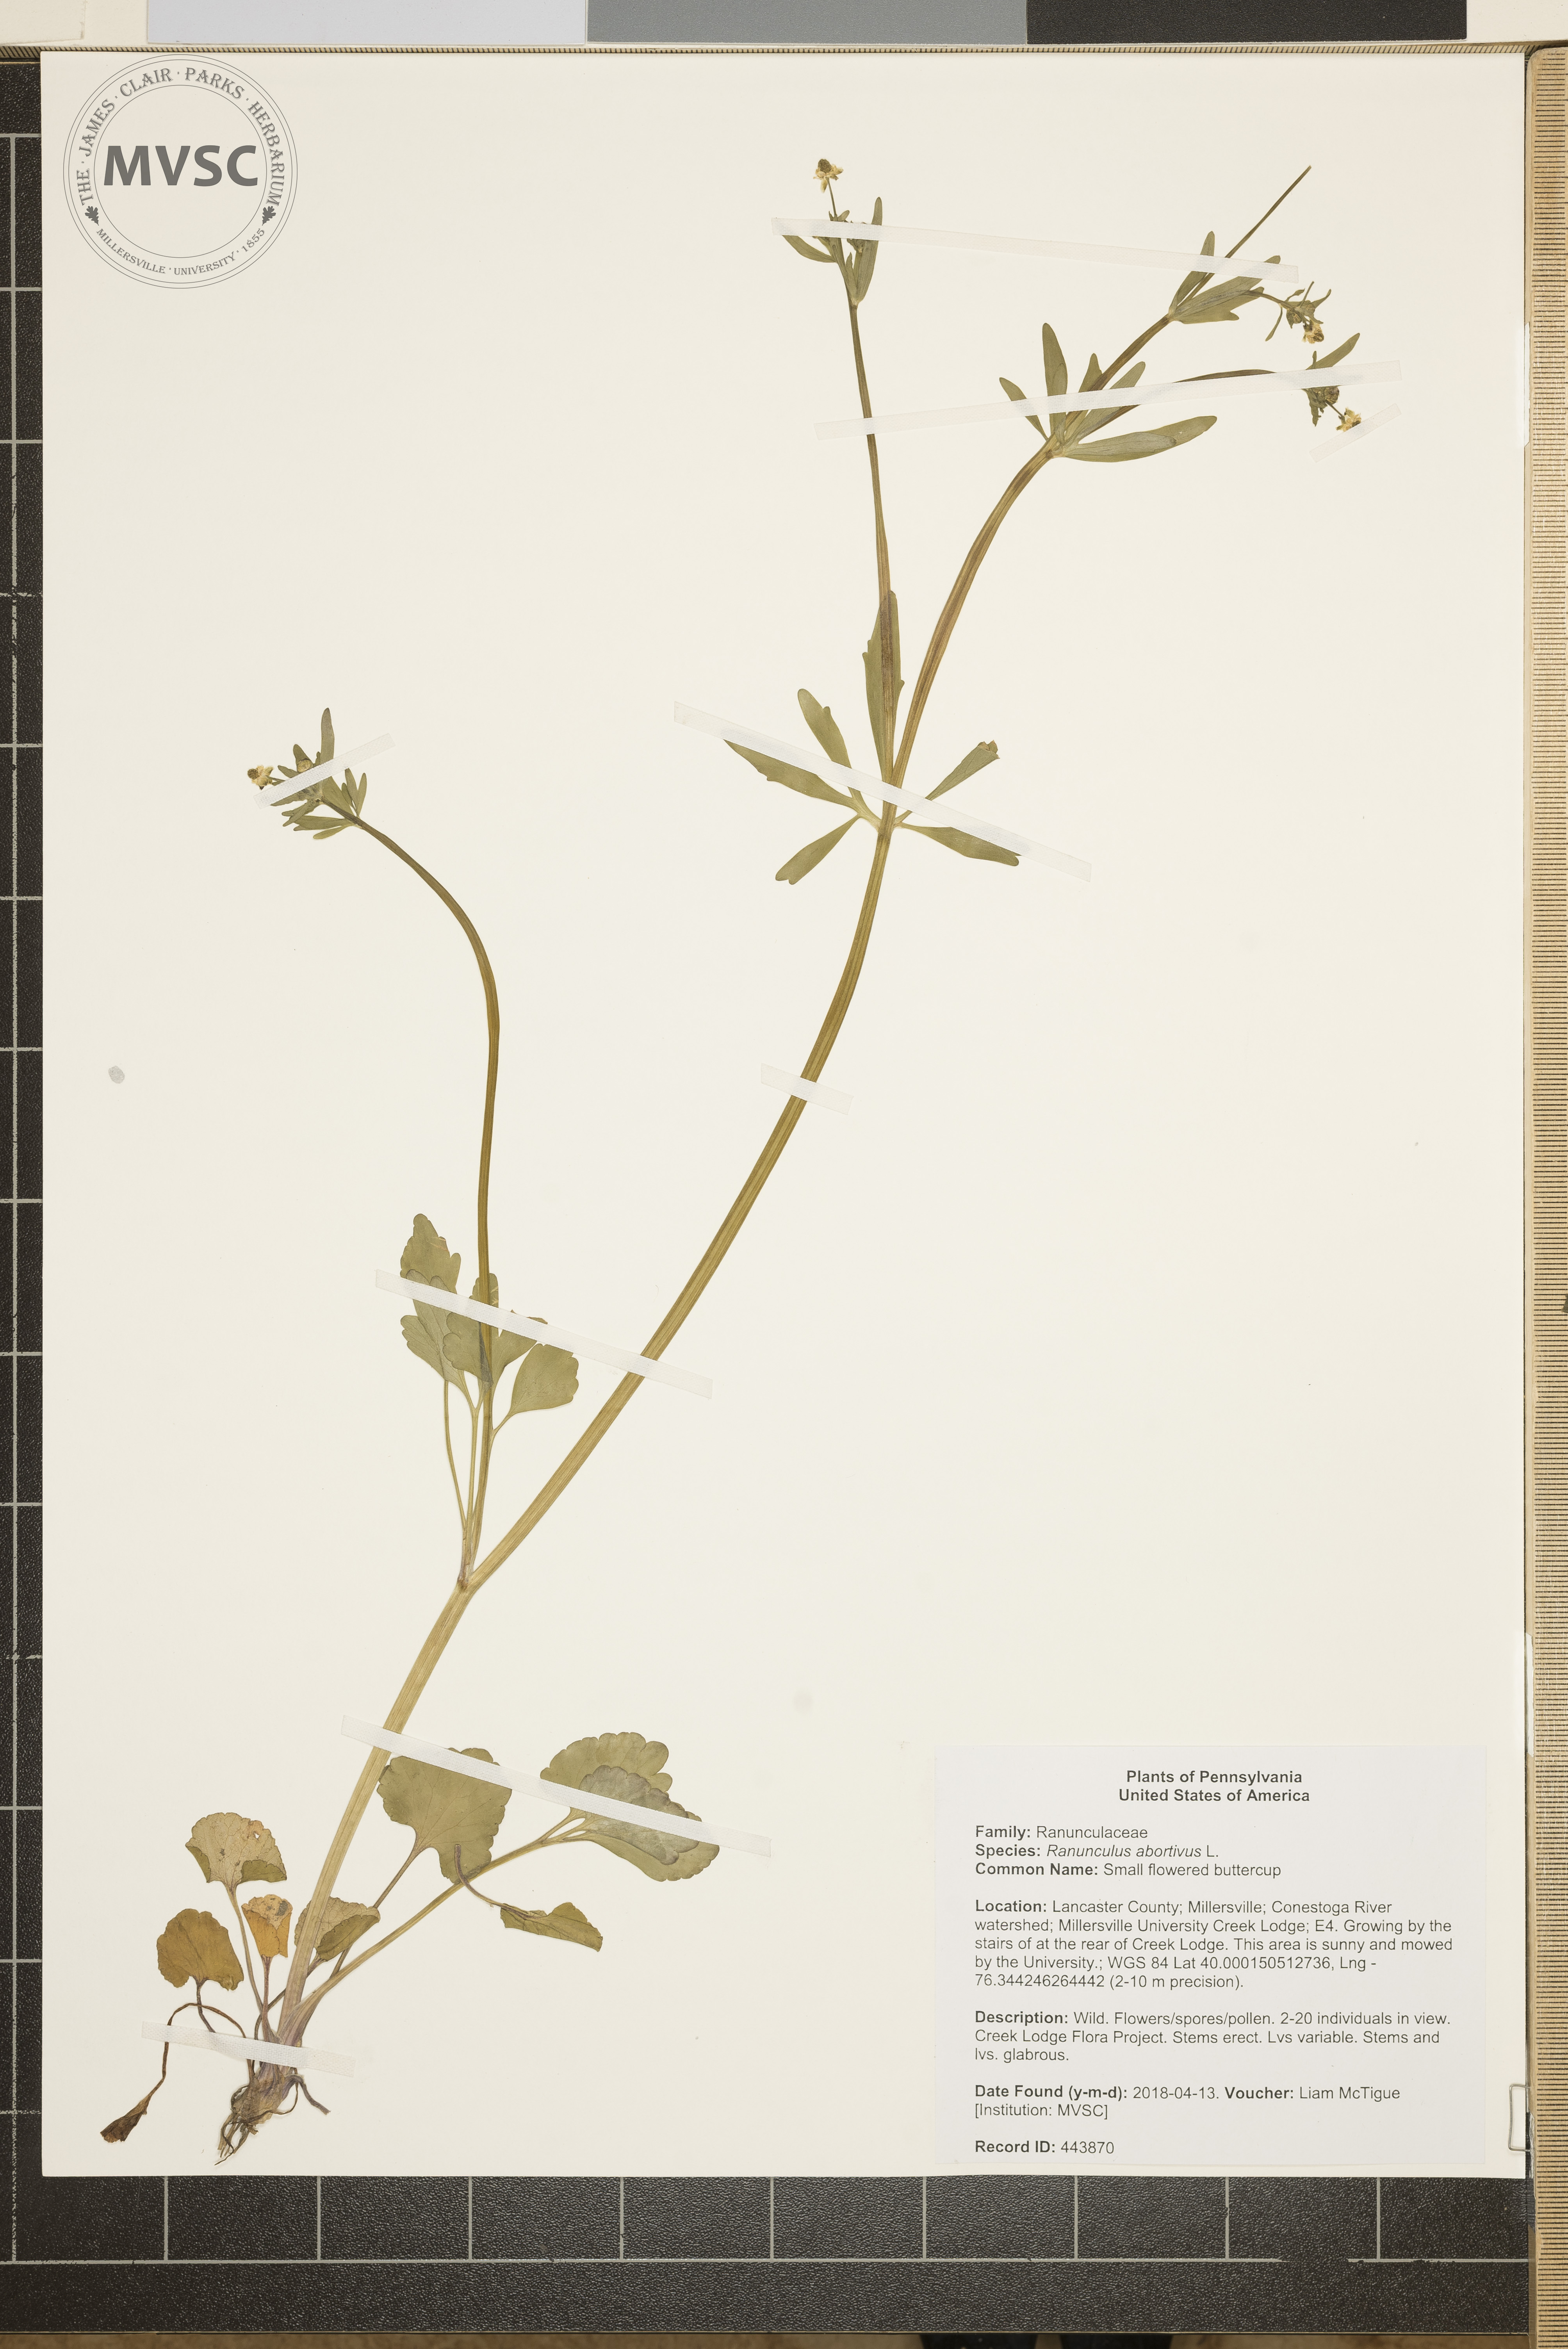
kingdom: Plantae
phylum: Tracheophyta
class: Magnoliopsida
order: Ranunculales
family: Ranunculaceae
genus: Ranunculus
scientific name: Ranunculus abortivus
